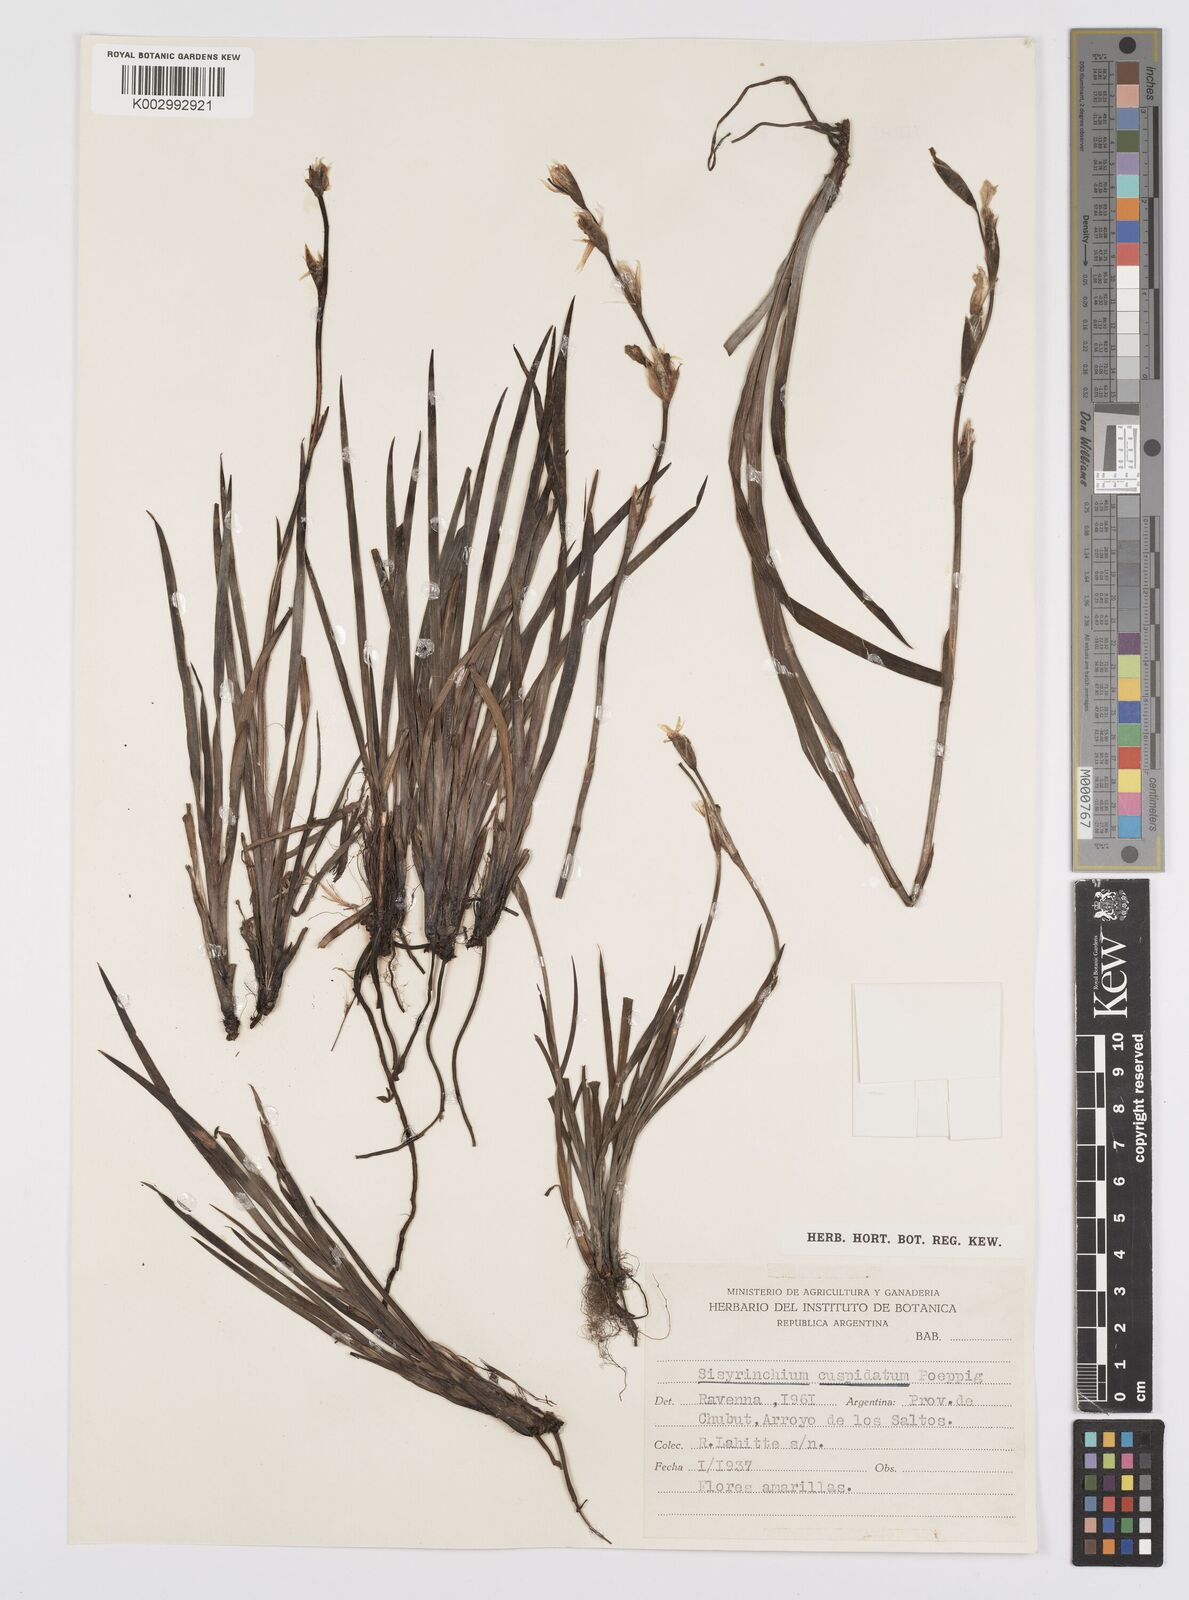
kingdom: Plantae
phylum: Tracheophyta
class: Liliopsida
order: Asparagales
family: Iridaceae
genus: Sisyrinchium
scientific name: Sisyrinchium cuspidatum
